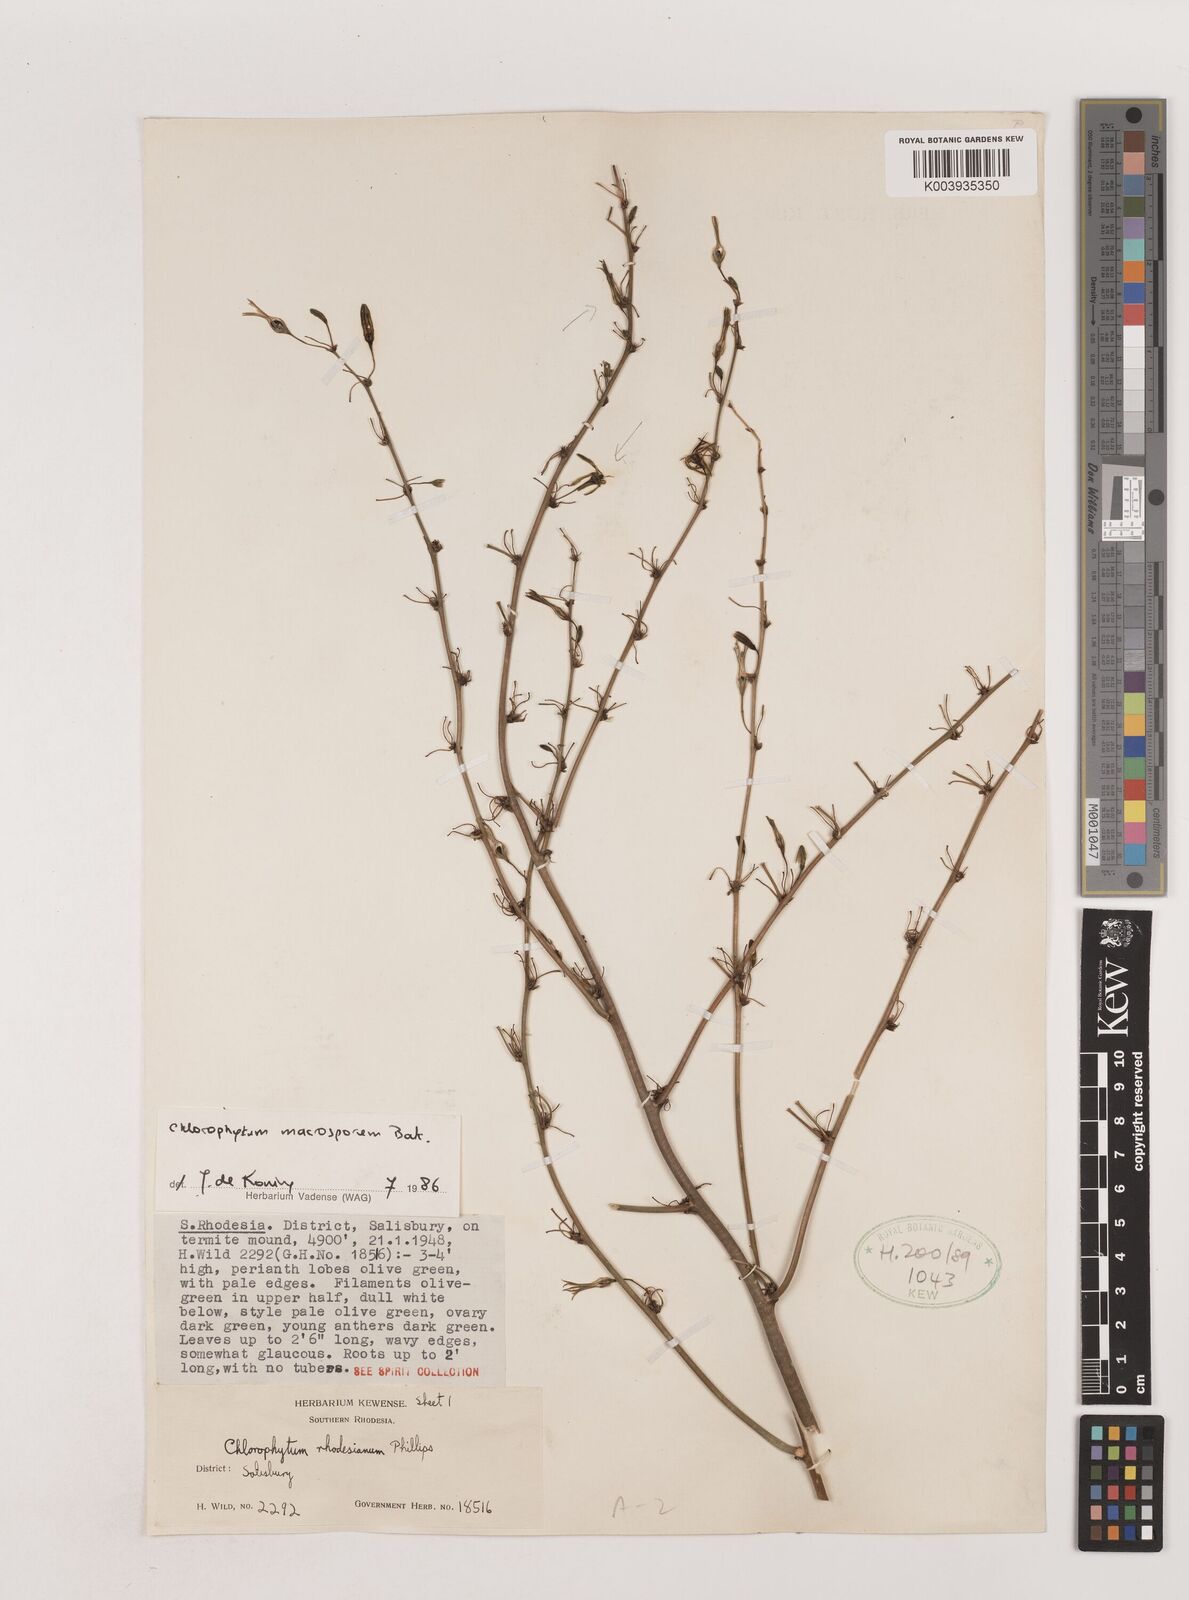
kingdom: Plantae
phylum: Tracheophyta
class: Liliopsida
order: Asparagales
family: Asparagaceae
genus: Chlorophytum
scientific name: Chlorophytum macrosporum
